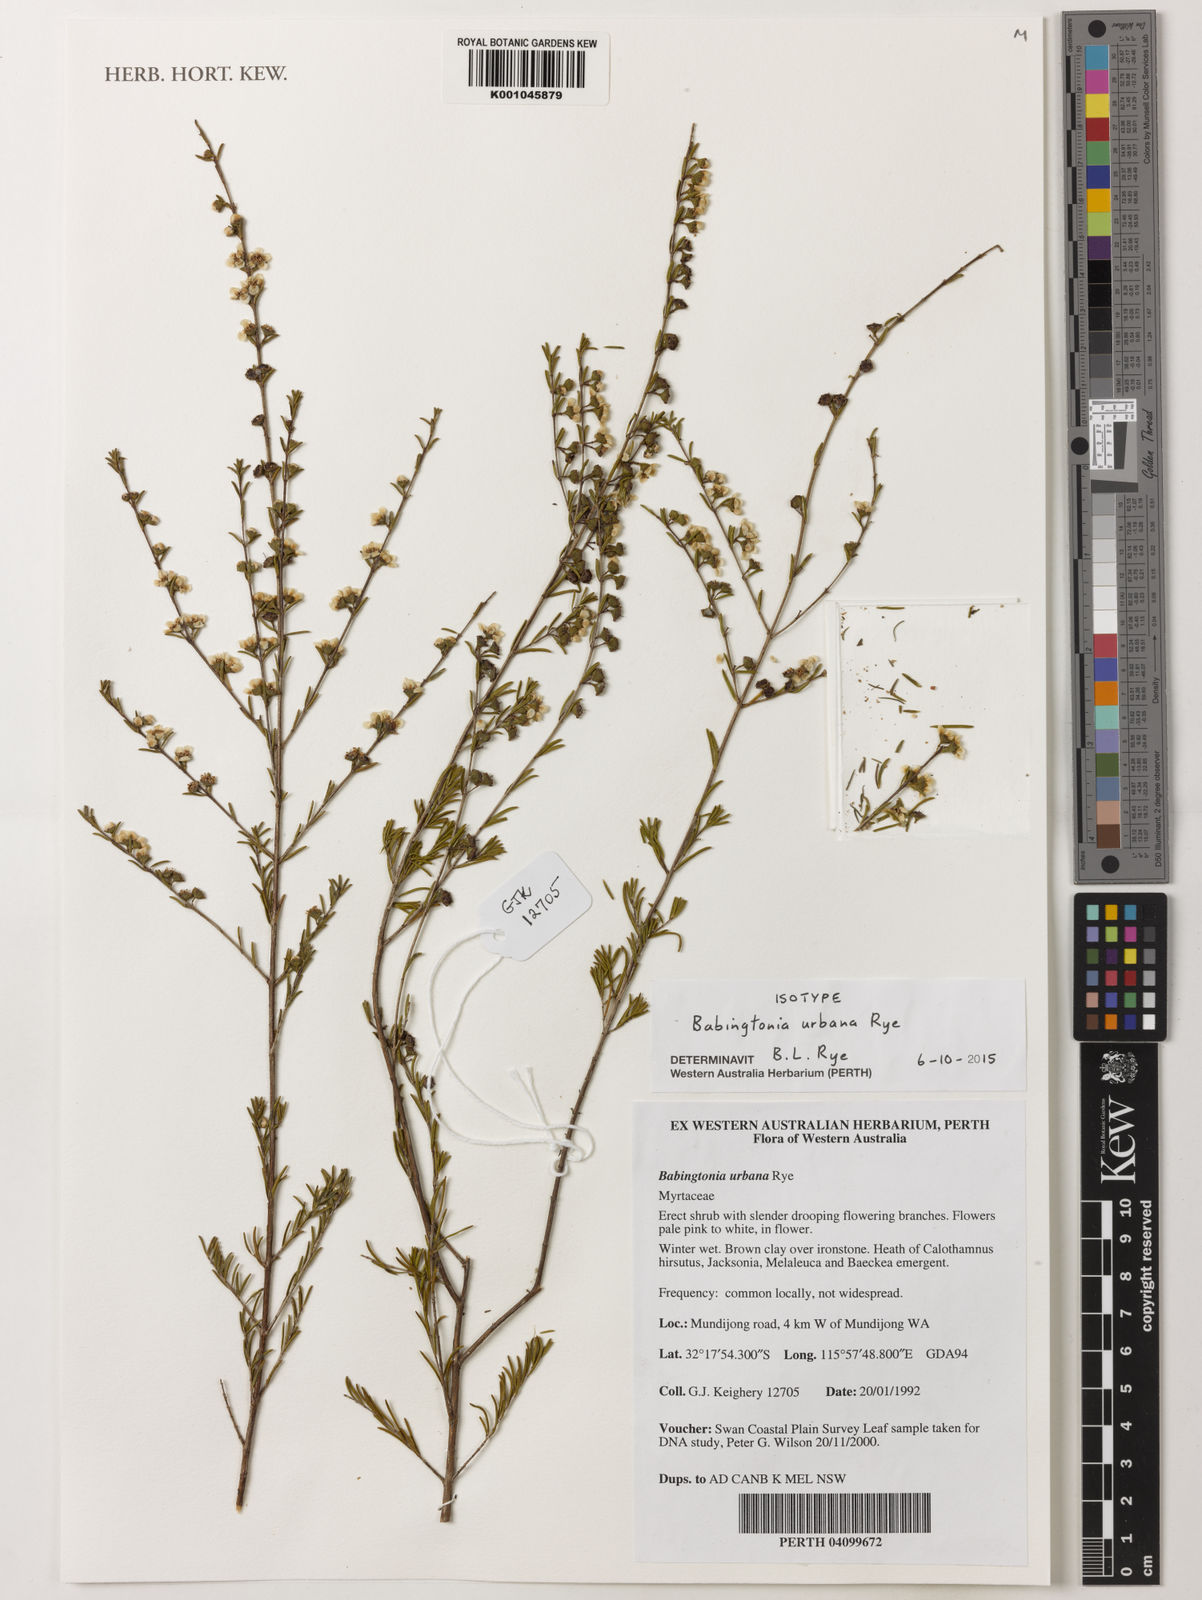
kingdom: Plantae
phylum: Tracheophyta
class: Magnoliopsida
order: Myrtales
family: Myrtaceae
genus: Babingtonia
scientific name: Babingtonia
